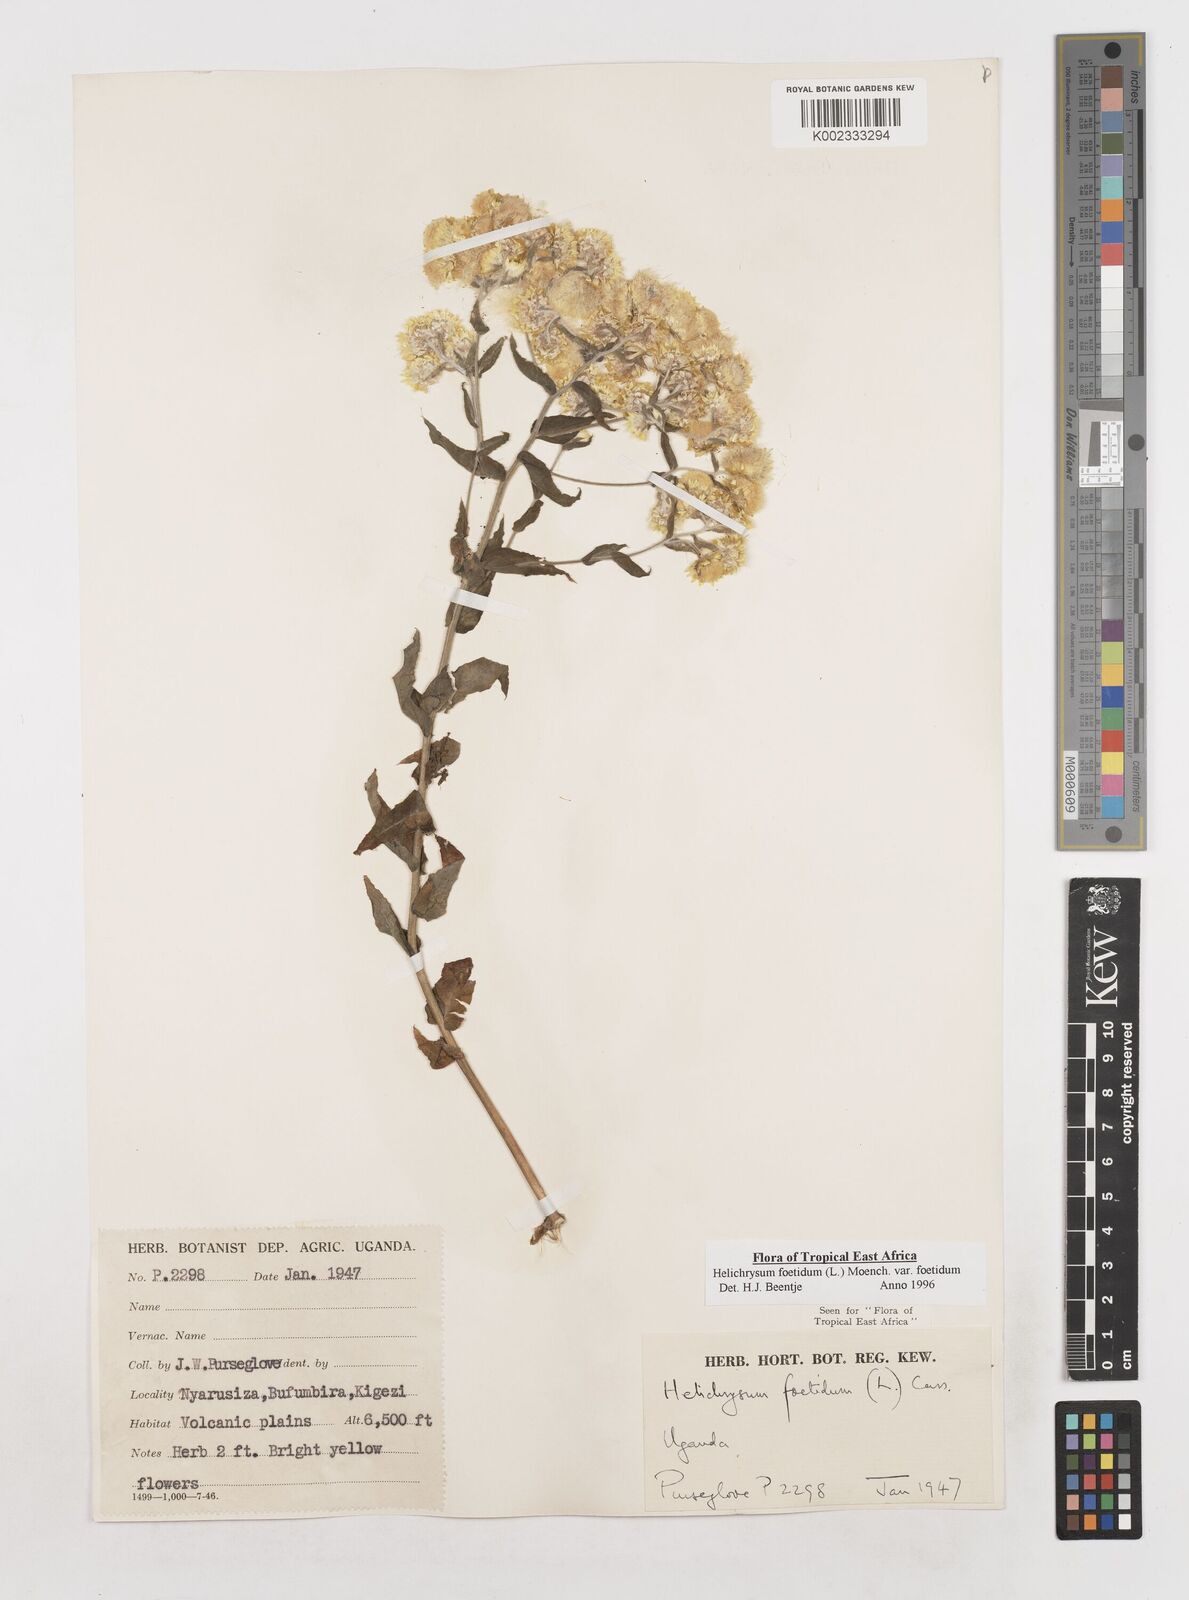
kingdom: Plantae
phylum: Tracheophyta
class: Magnoliopsida
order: Asterales
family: Asteraceae
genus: Helichrysum
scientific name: Helichrysum foetidum
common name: Stinking everlasting
